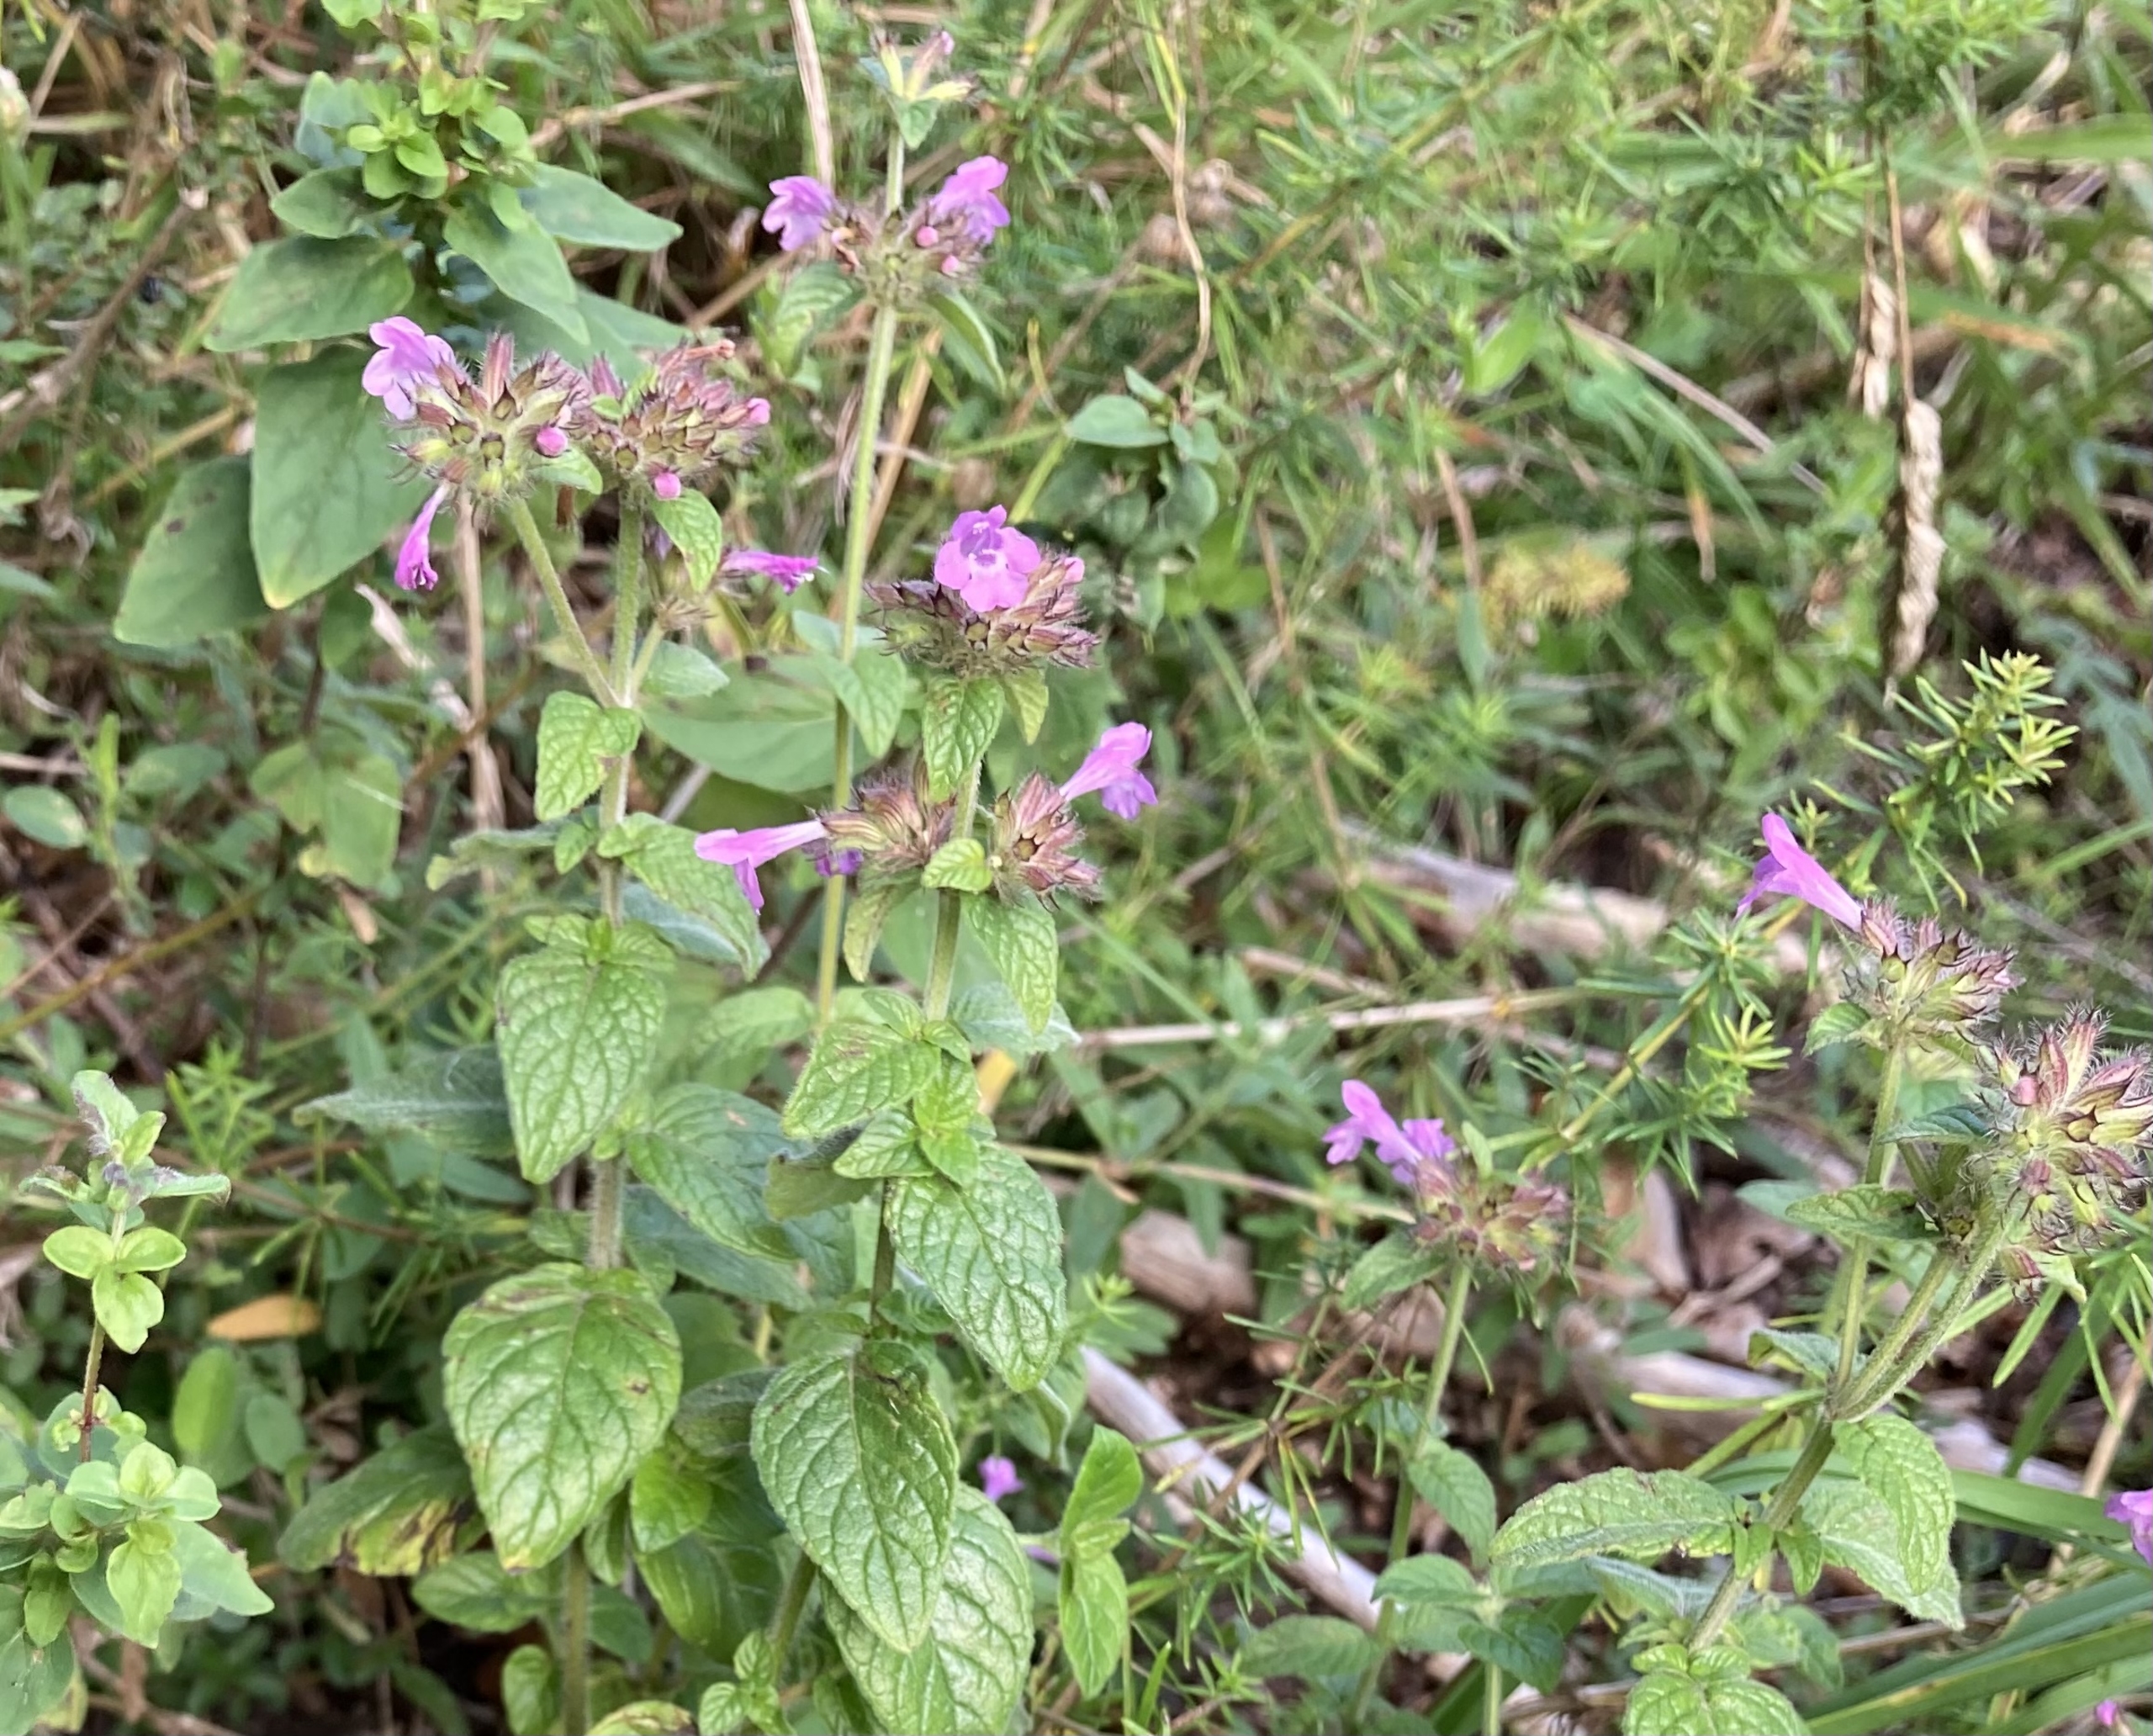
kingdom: Plantae
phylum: Tracheophyta
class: Magnoliopsida
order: Lamiales
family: Lamiaceae
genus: Clinopodium
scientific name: Clinopodium vulgare
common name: Kransbørste
